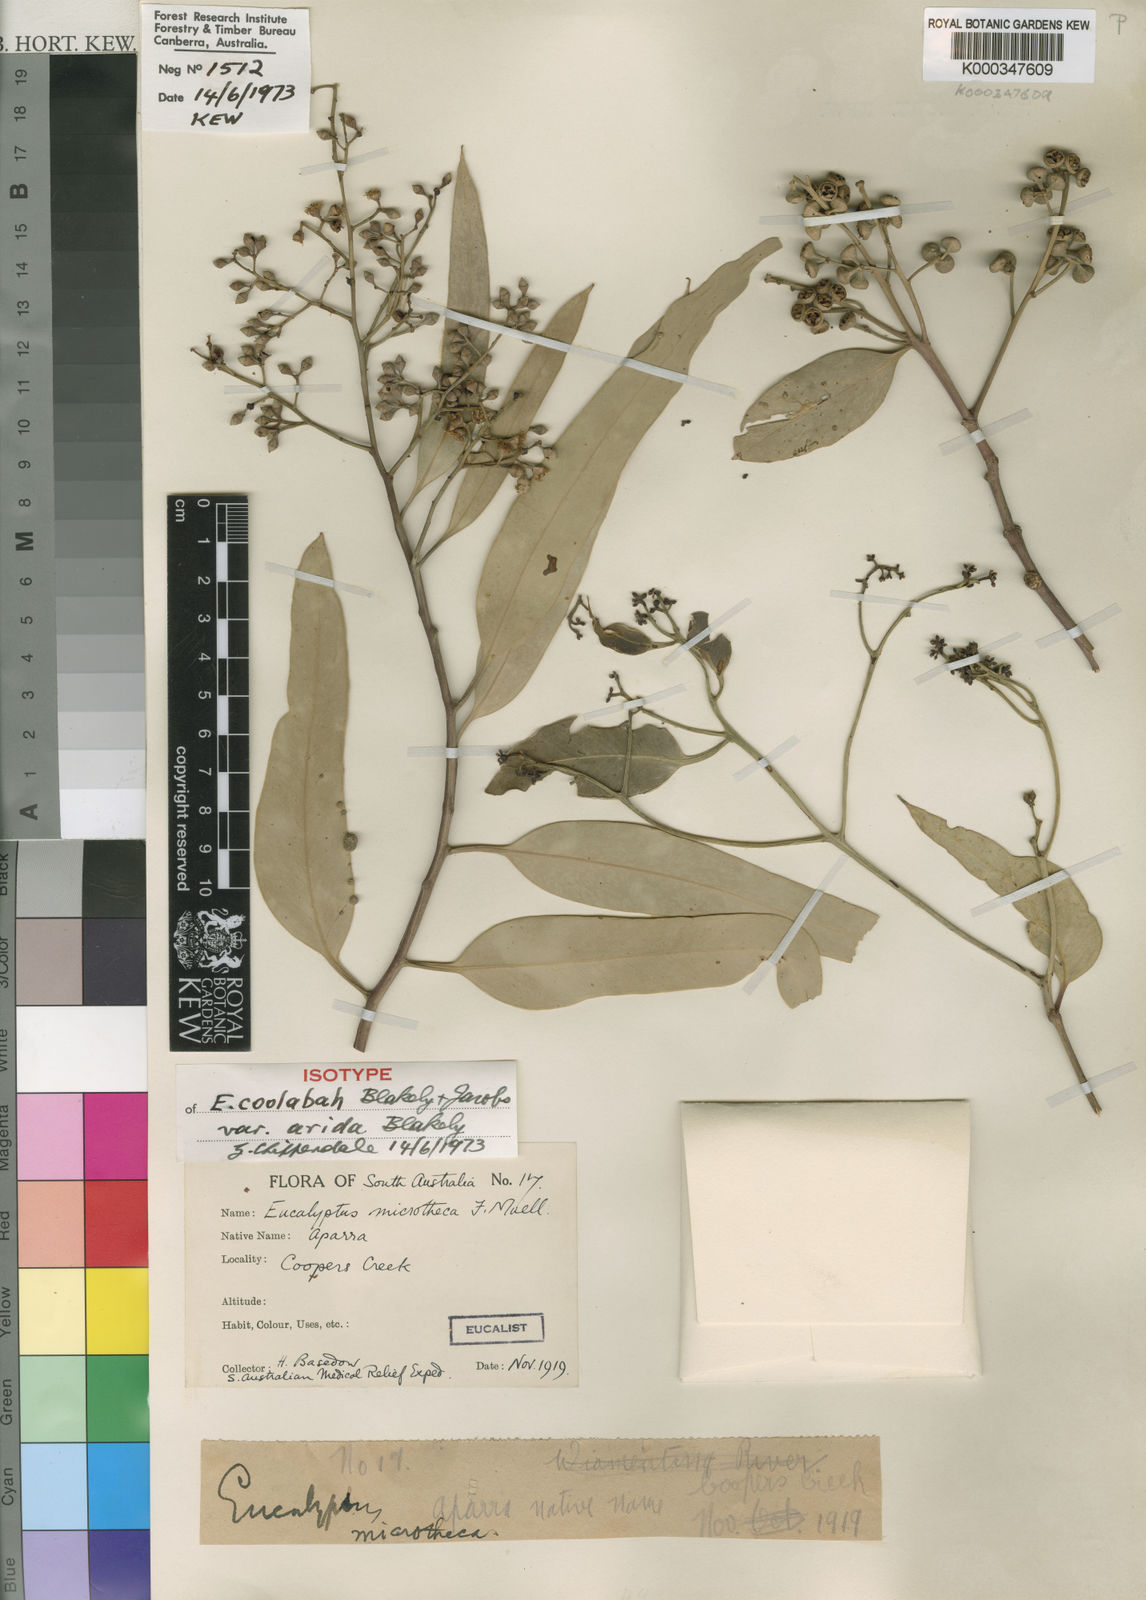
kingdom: Plantae
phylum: Tracheophyta
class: Magnoliopsida
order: Myrtales
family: Myrtaceae
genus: Eucalyptus
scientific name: Eucalyptus coolabah
